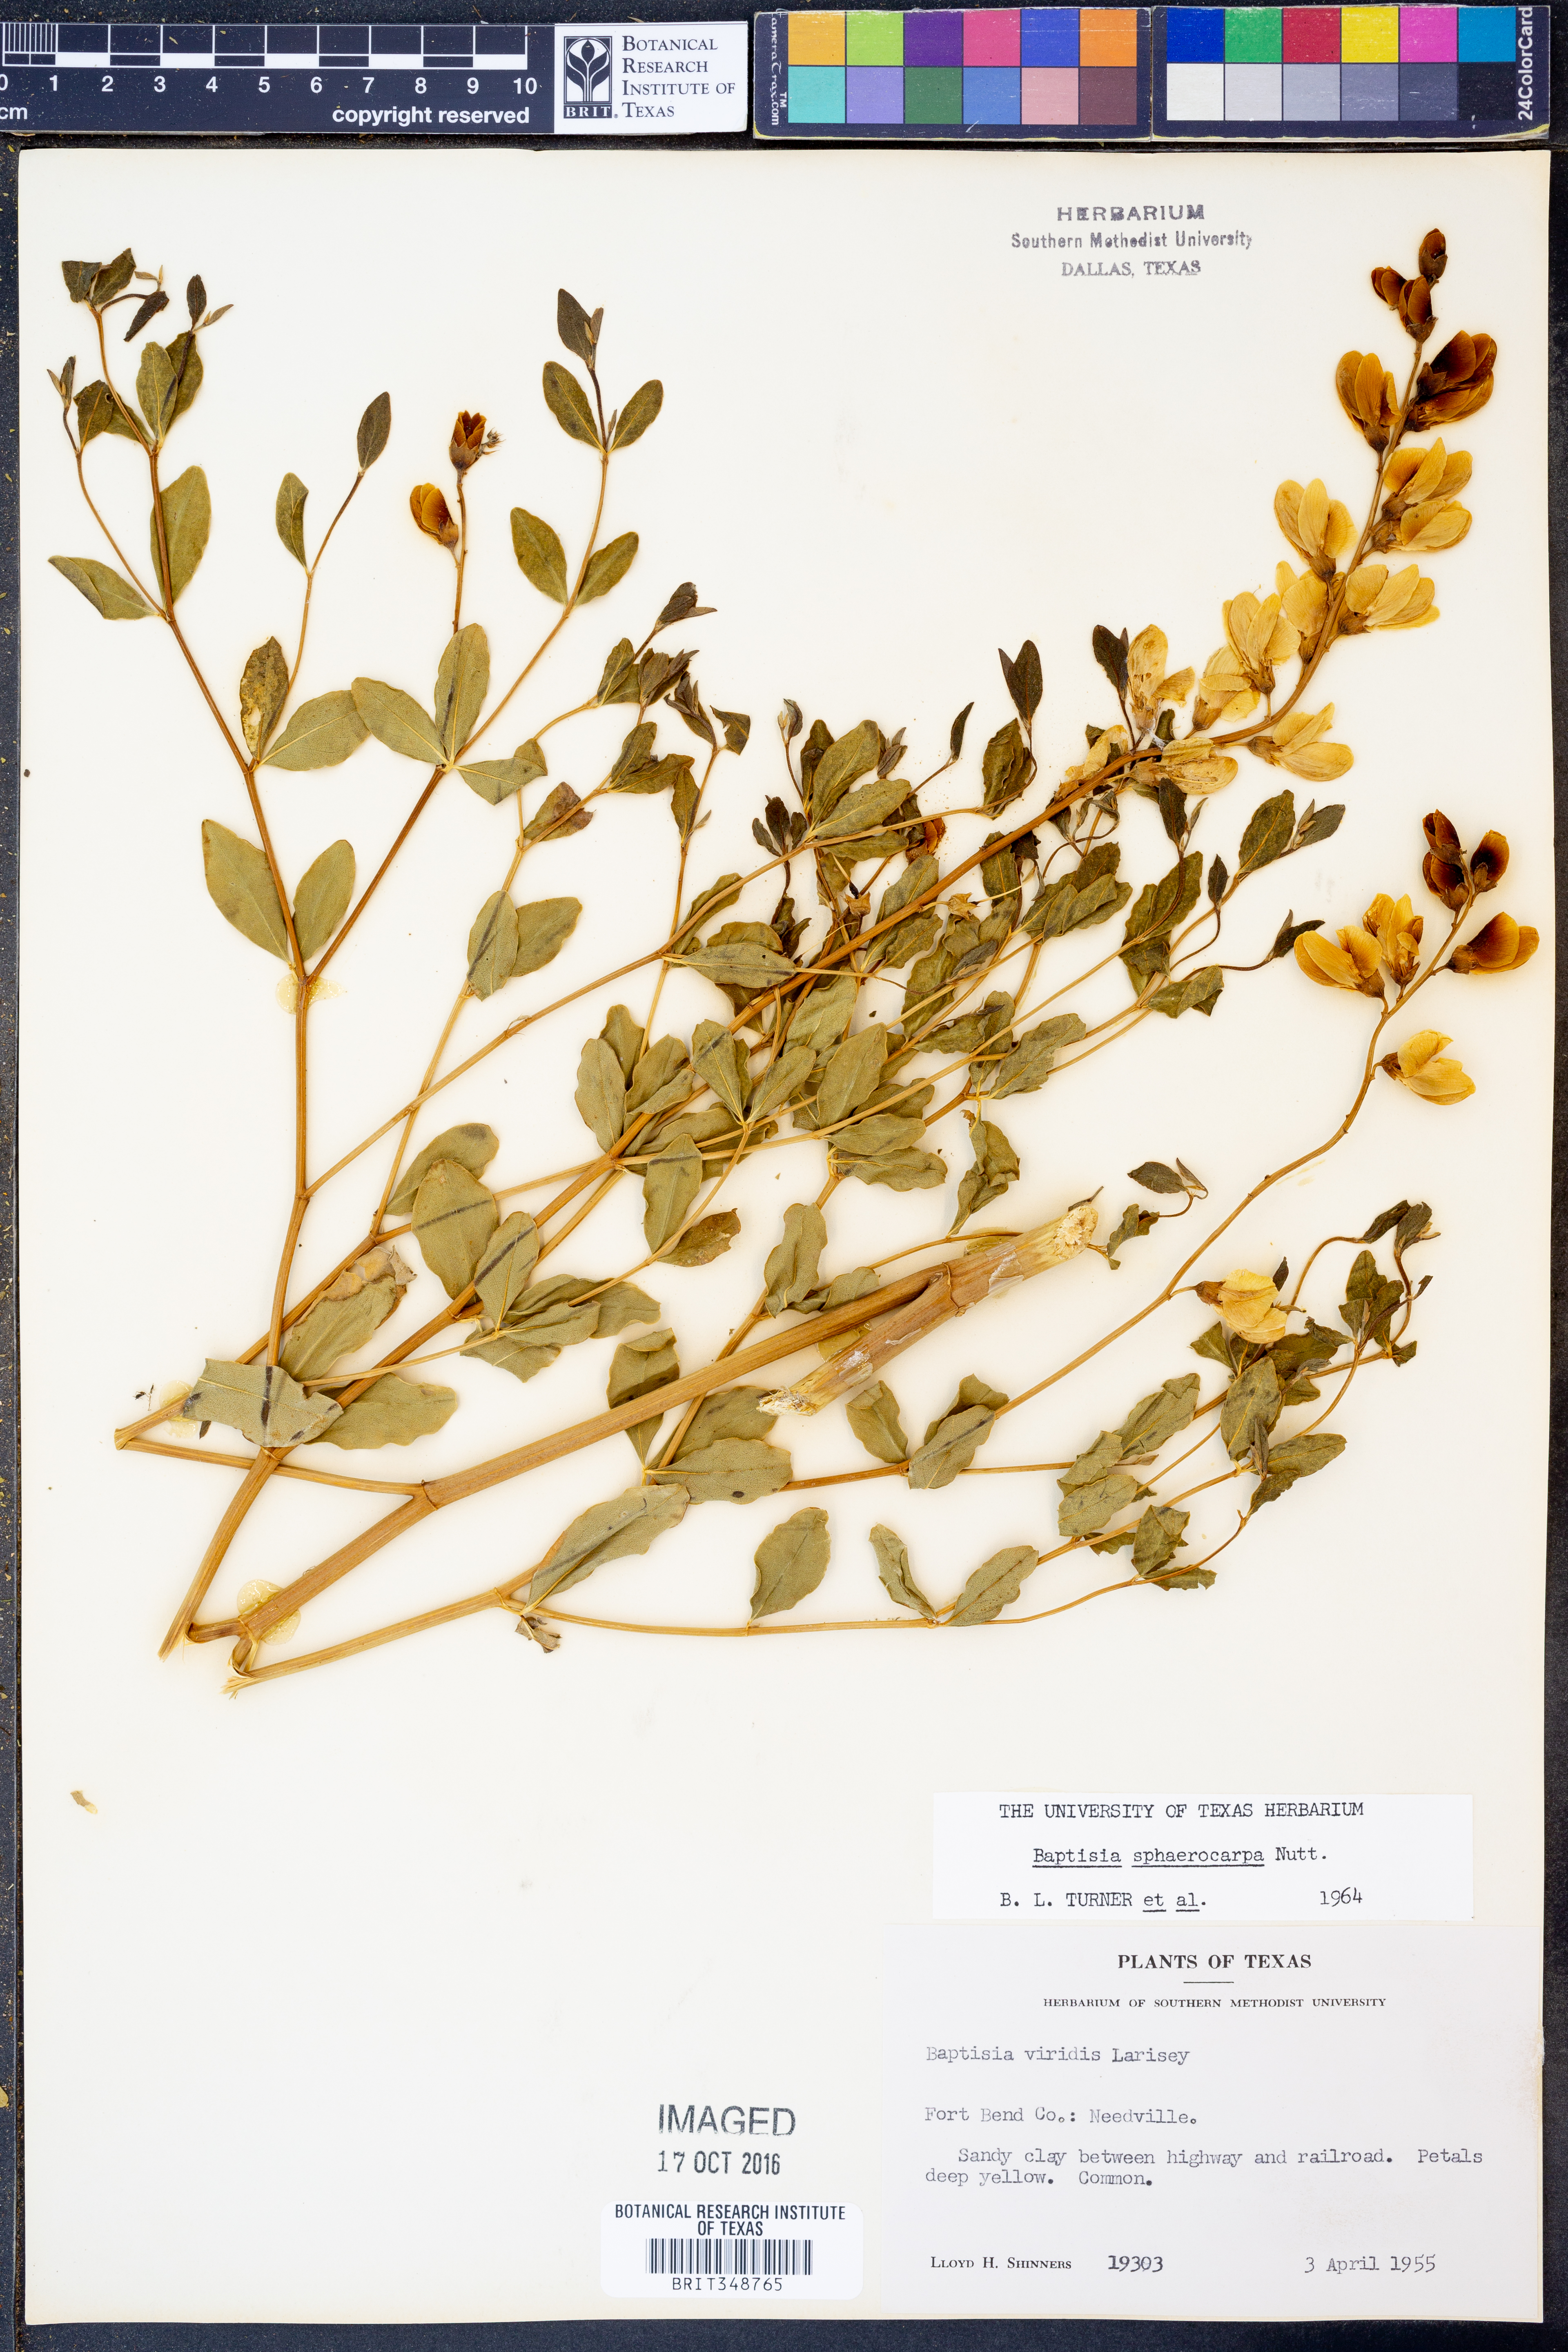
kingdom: Plantae
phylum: Tracheophyta
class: Magnoliopsida
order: Fabales
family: Fabaceae
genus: Baptisia
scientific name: Baptisia sphaerocarpa
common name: Round wild indigo
